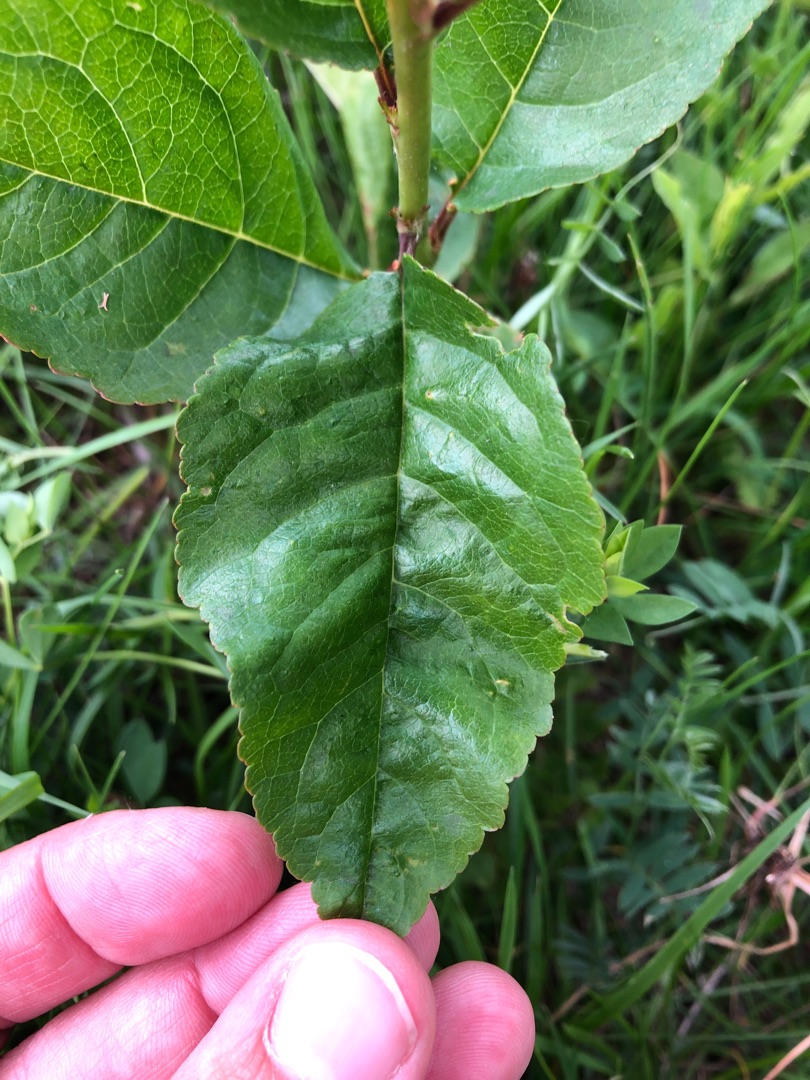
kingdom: Plantae
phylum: Tracheophyta
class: Magnoliopsida
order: Rosales
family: Rosaceae
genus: Prunus
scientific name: Prunus cerasifera
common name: Mirabel
